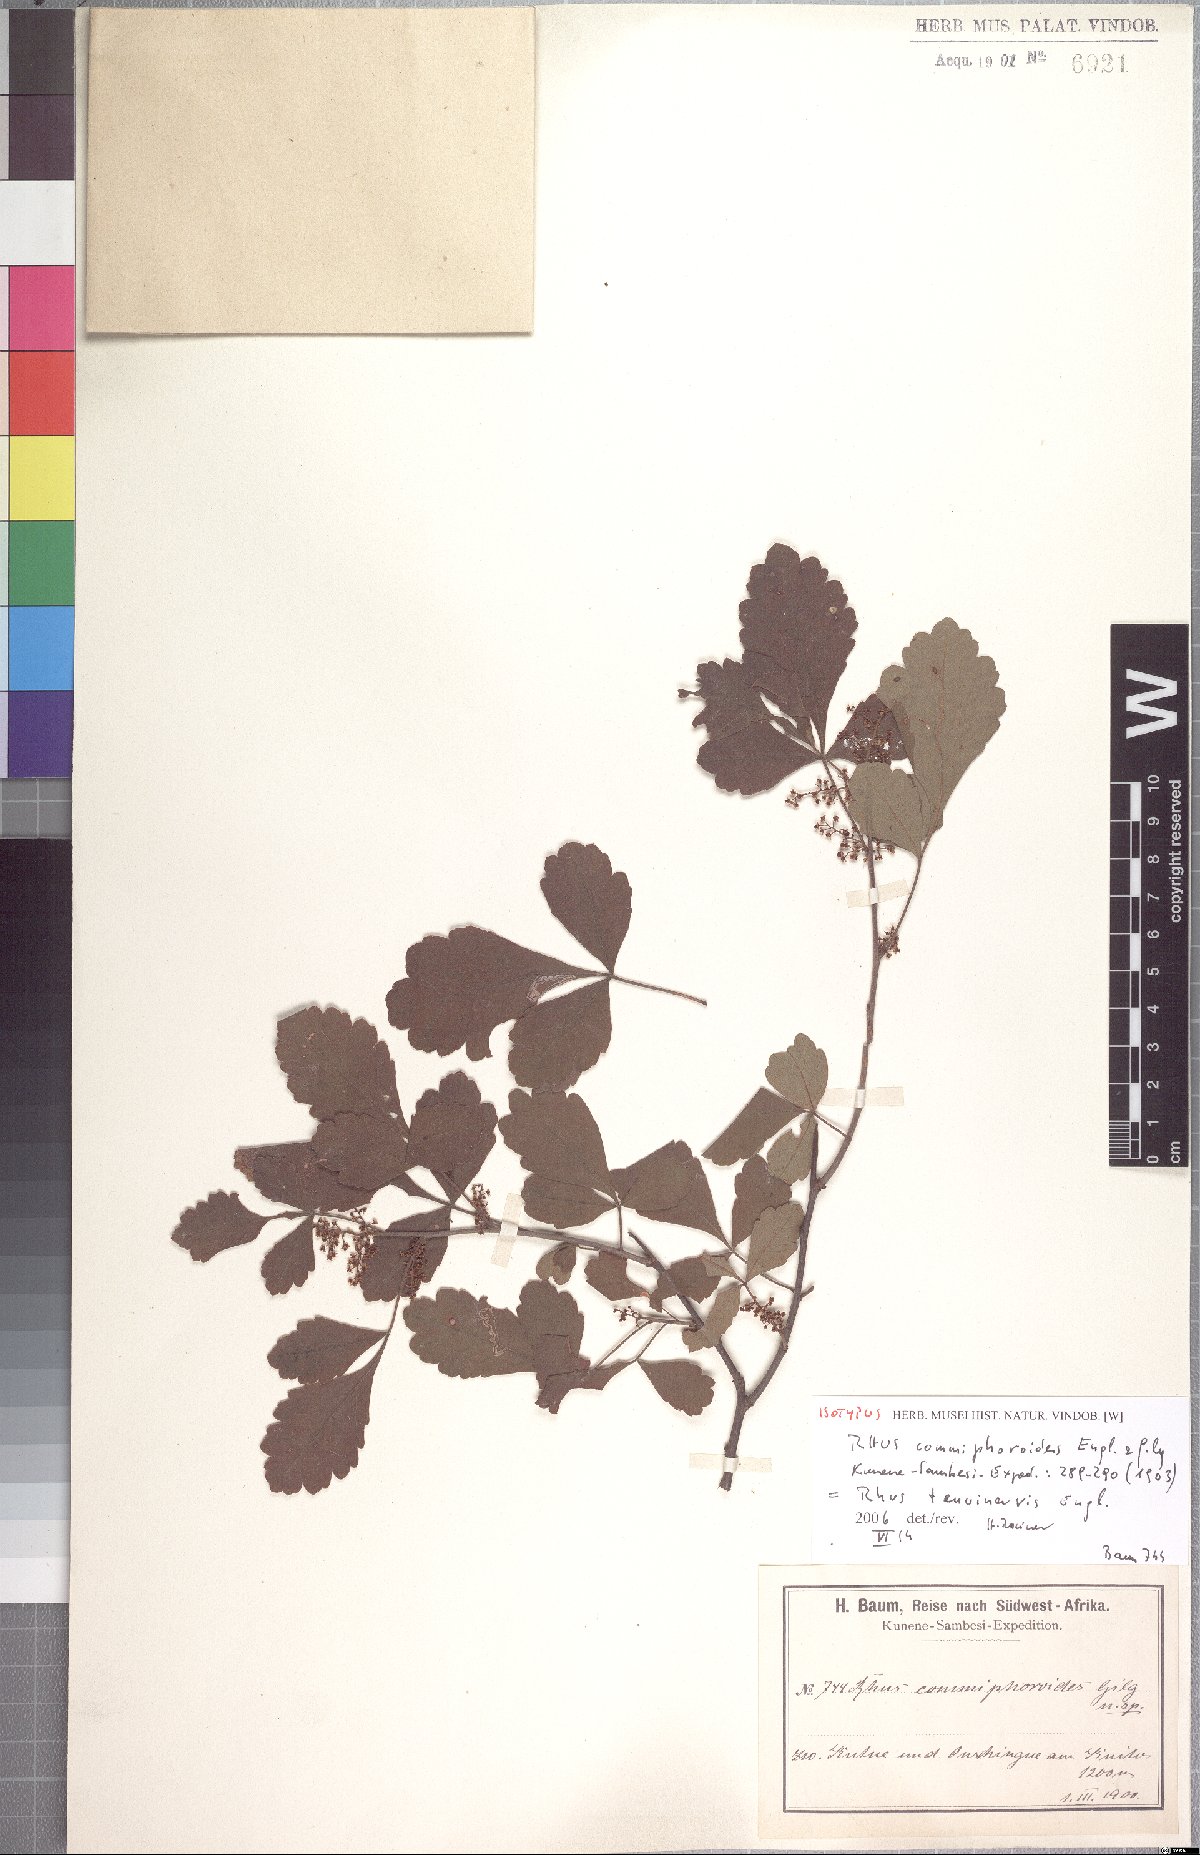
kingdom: Plantae
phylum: Tracheophyta
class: Magnoliopsida
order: Sapindales
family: Anacardiaceae
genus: Searsia
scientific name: Searsia tenuinervis
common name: Hyaena taaibos
